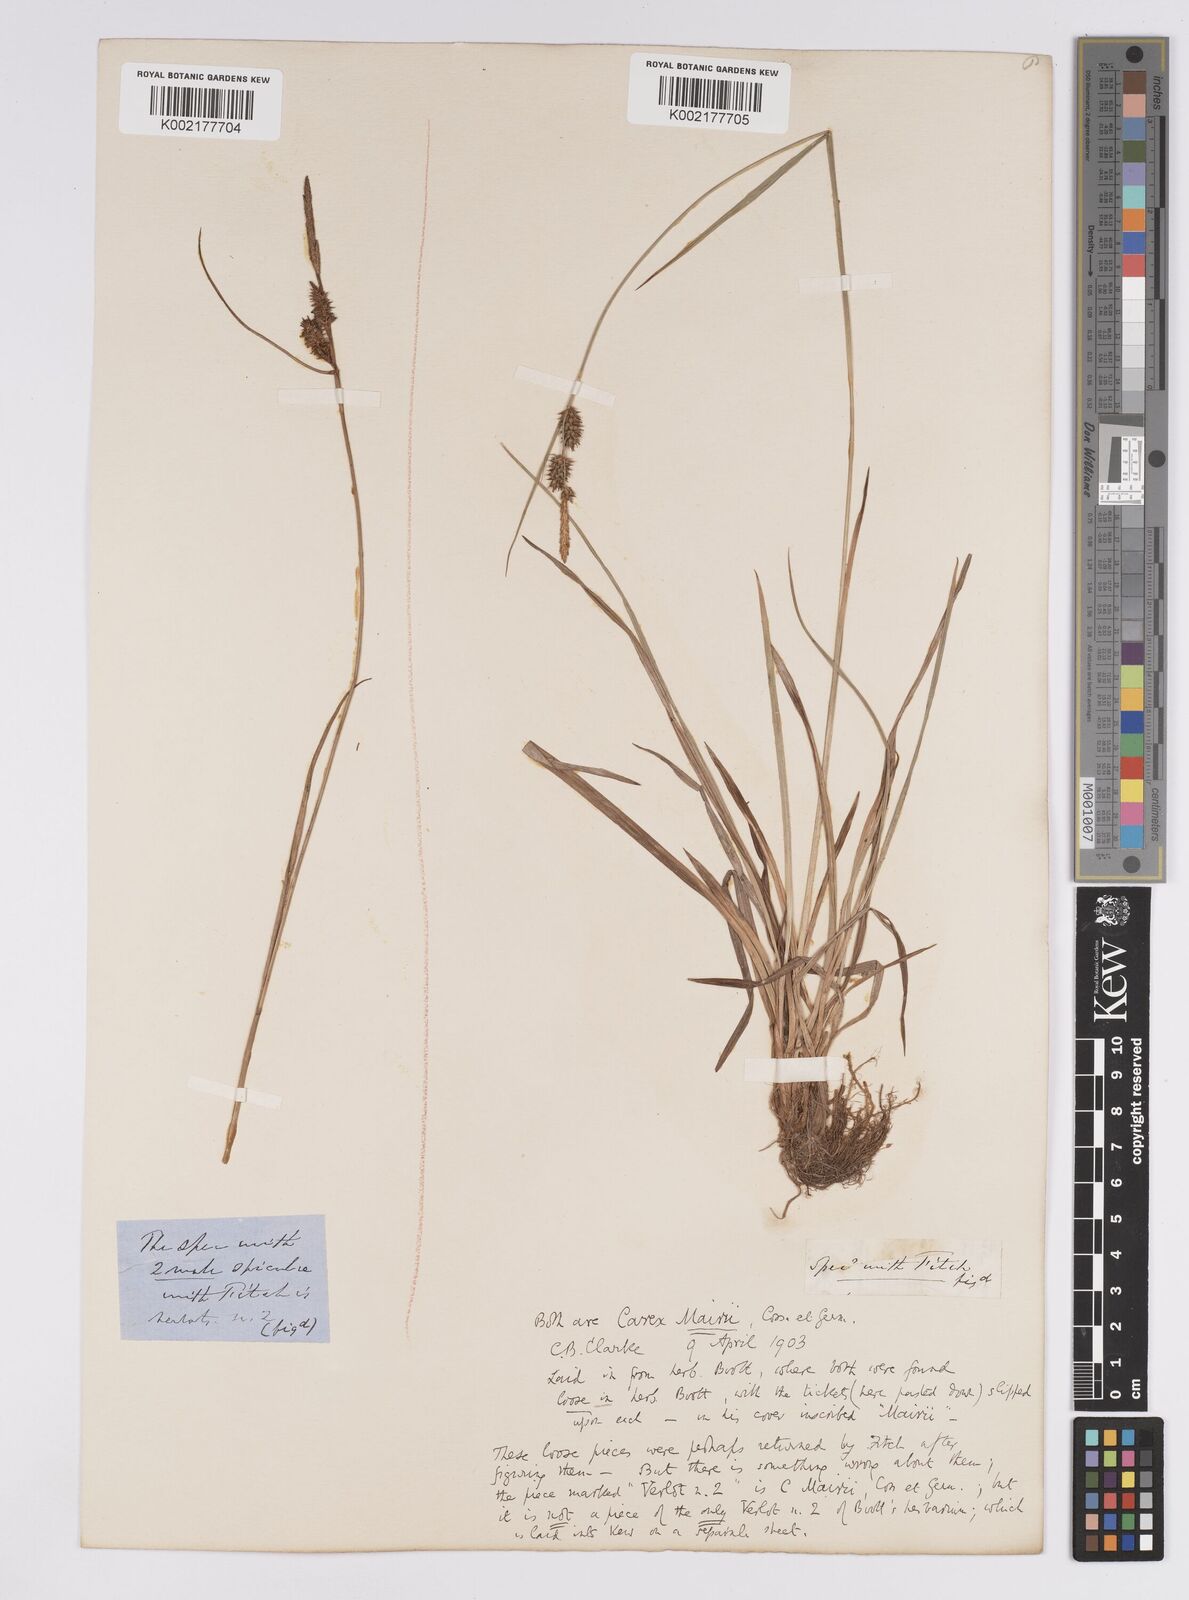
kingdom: Plantae
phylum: Tracheophyta
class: Liliopsida
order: Poales
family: Cyperaceae
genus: Carex
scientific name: Carex mairei
